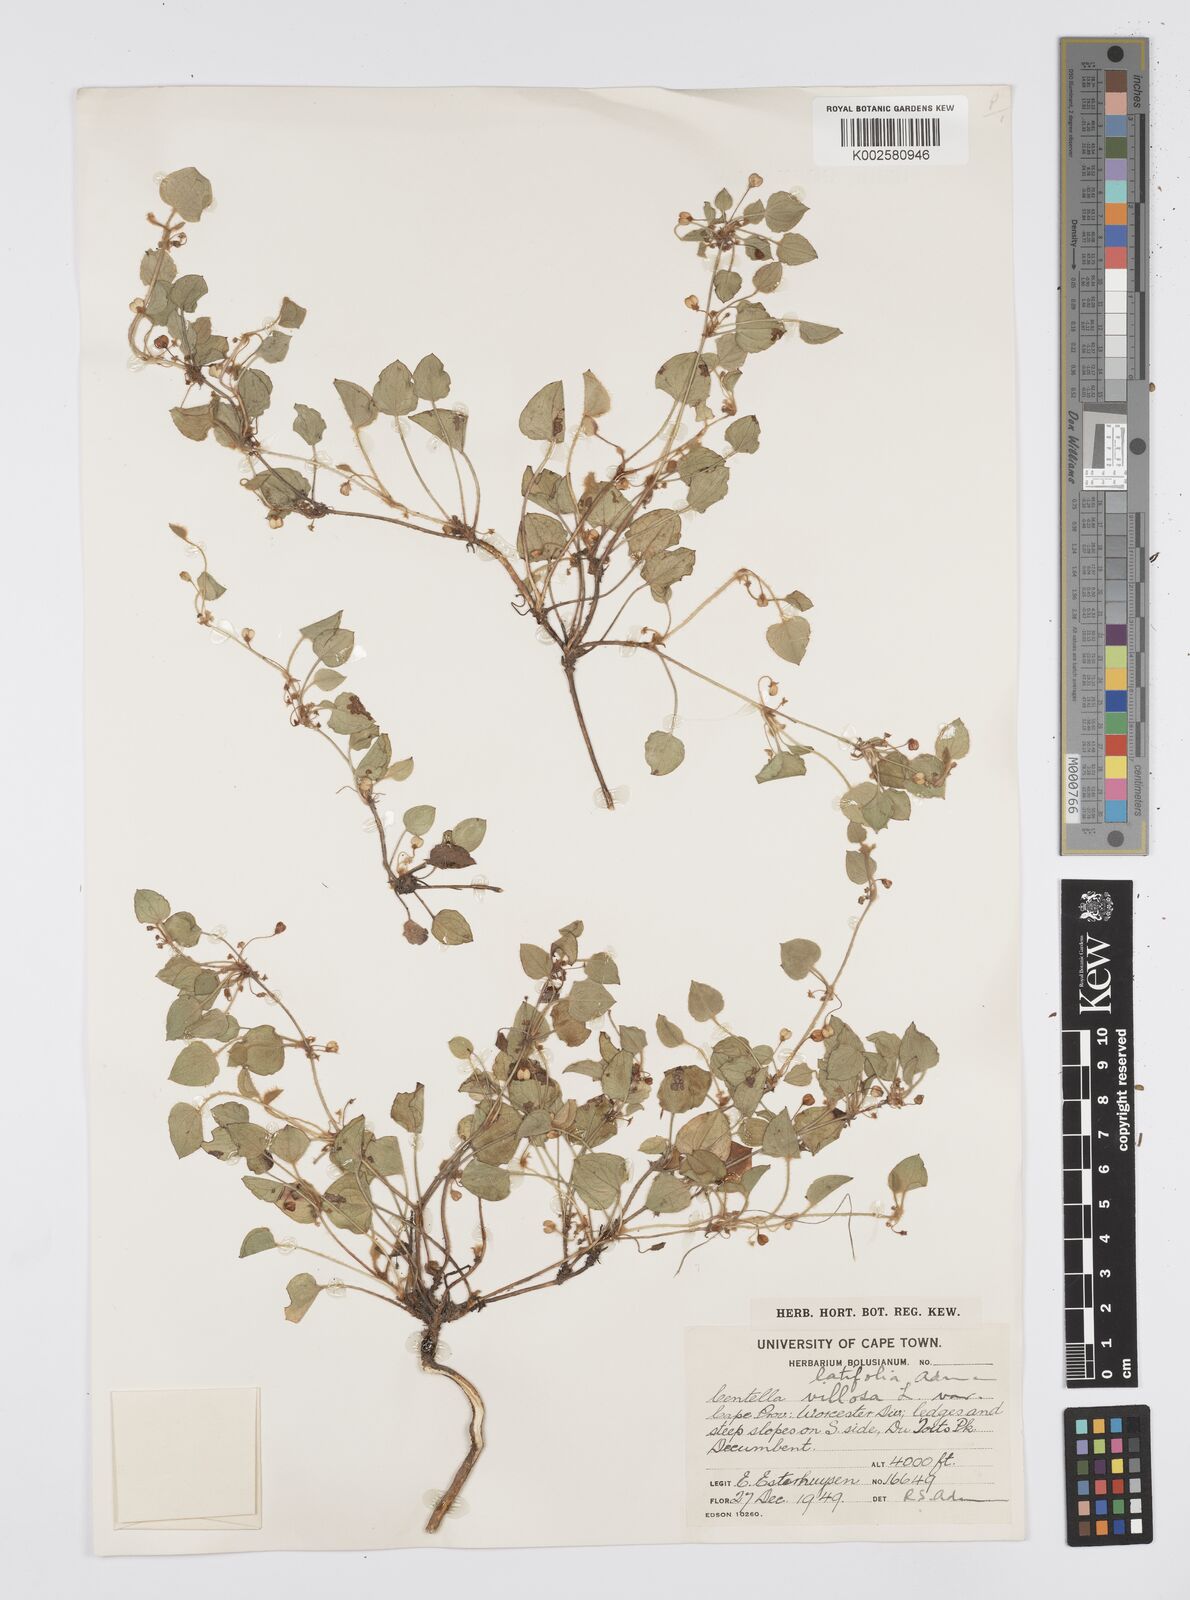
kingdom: Plantae
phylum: Tracheophyta
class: Magnoliopsida
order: Apiales
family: Apiaceae
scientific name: Apiaceae
